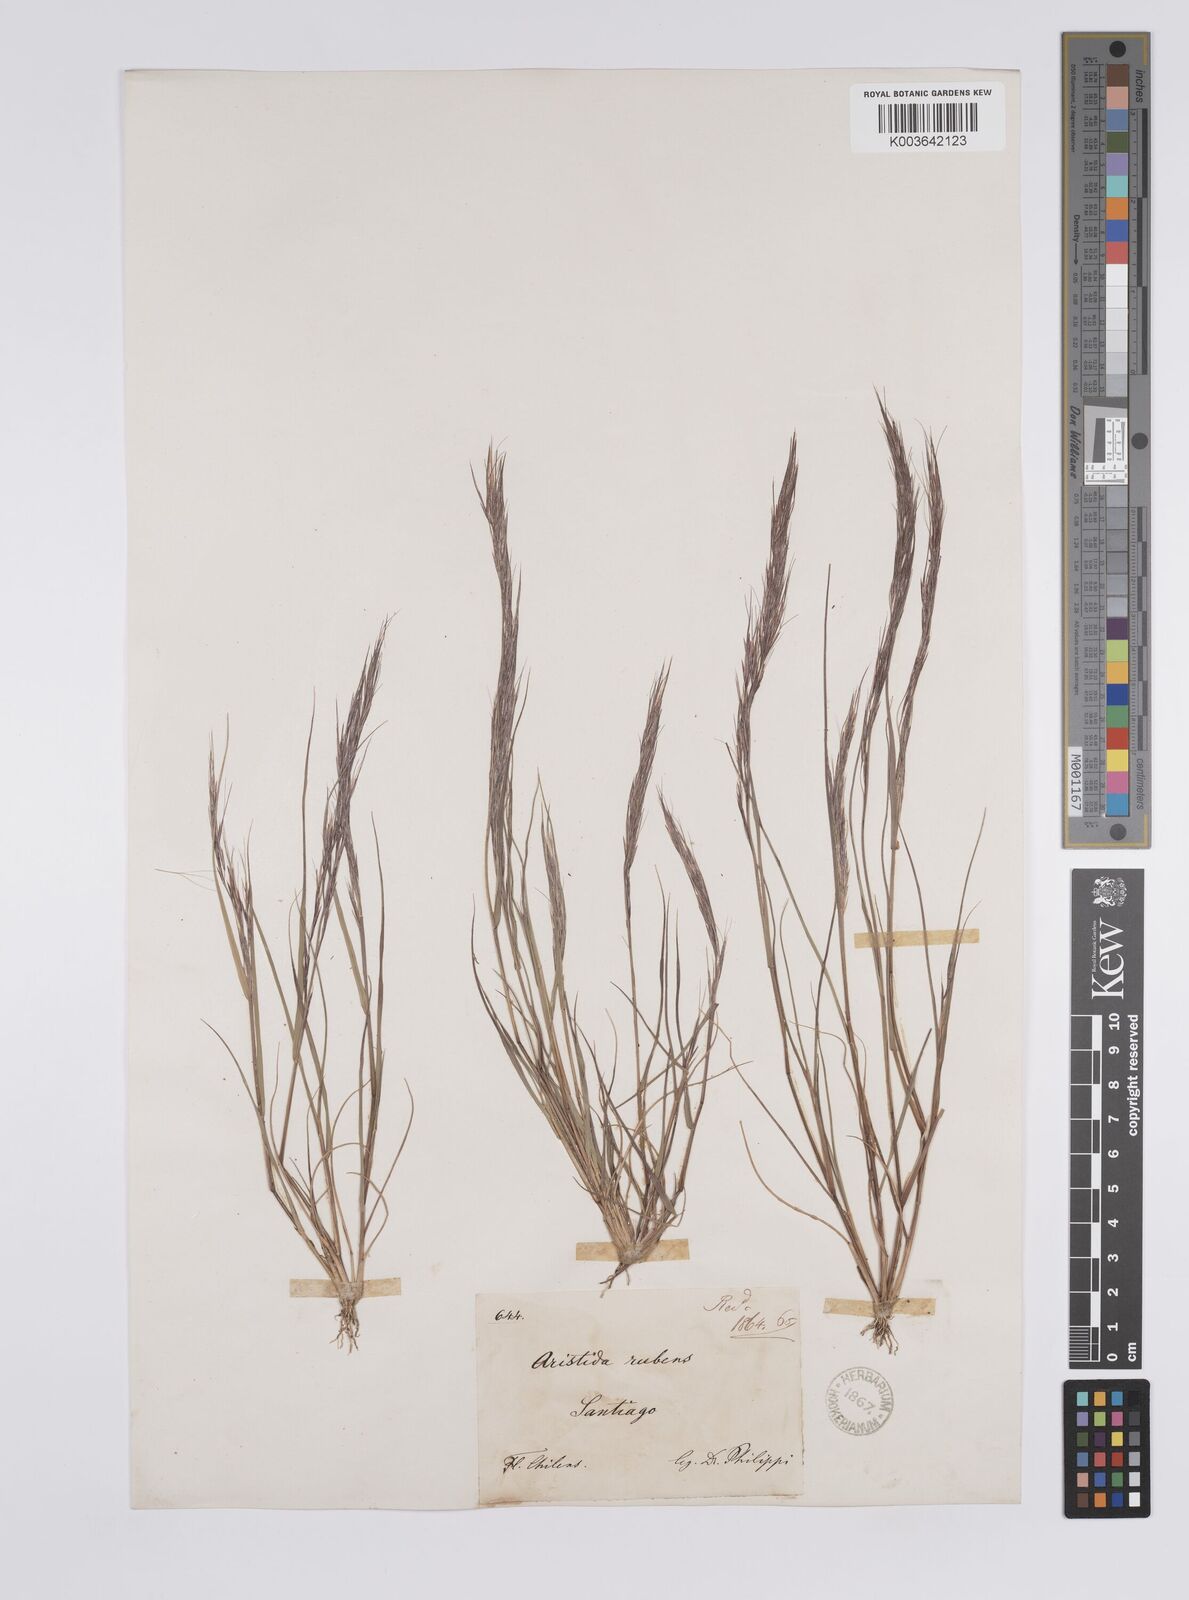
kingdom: Plantae
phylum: Tracheophyta
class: Liliopsida
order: Poales
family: Poaceae
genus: Aristida
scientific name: Aristida adscensionis
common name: Sixweeks threeawn
